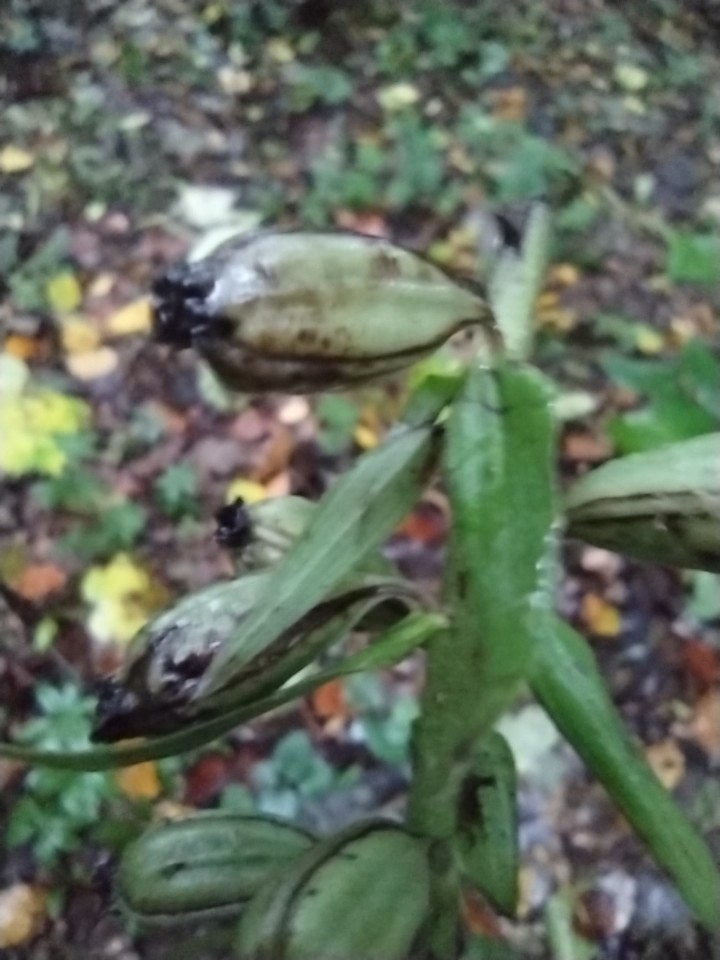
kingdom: Plantae
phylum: Tracheophyta
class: Liliopsida
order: Asparagales
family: Orchidaceae
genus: Epipactis
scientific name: Epipactis helleborine
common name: Skov-hullæbe
